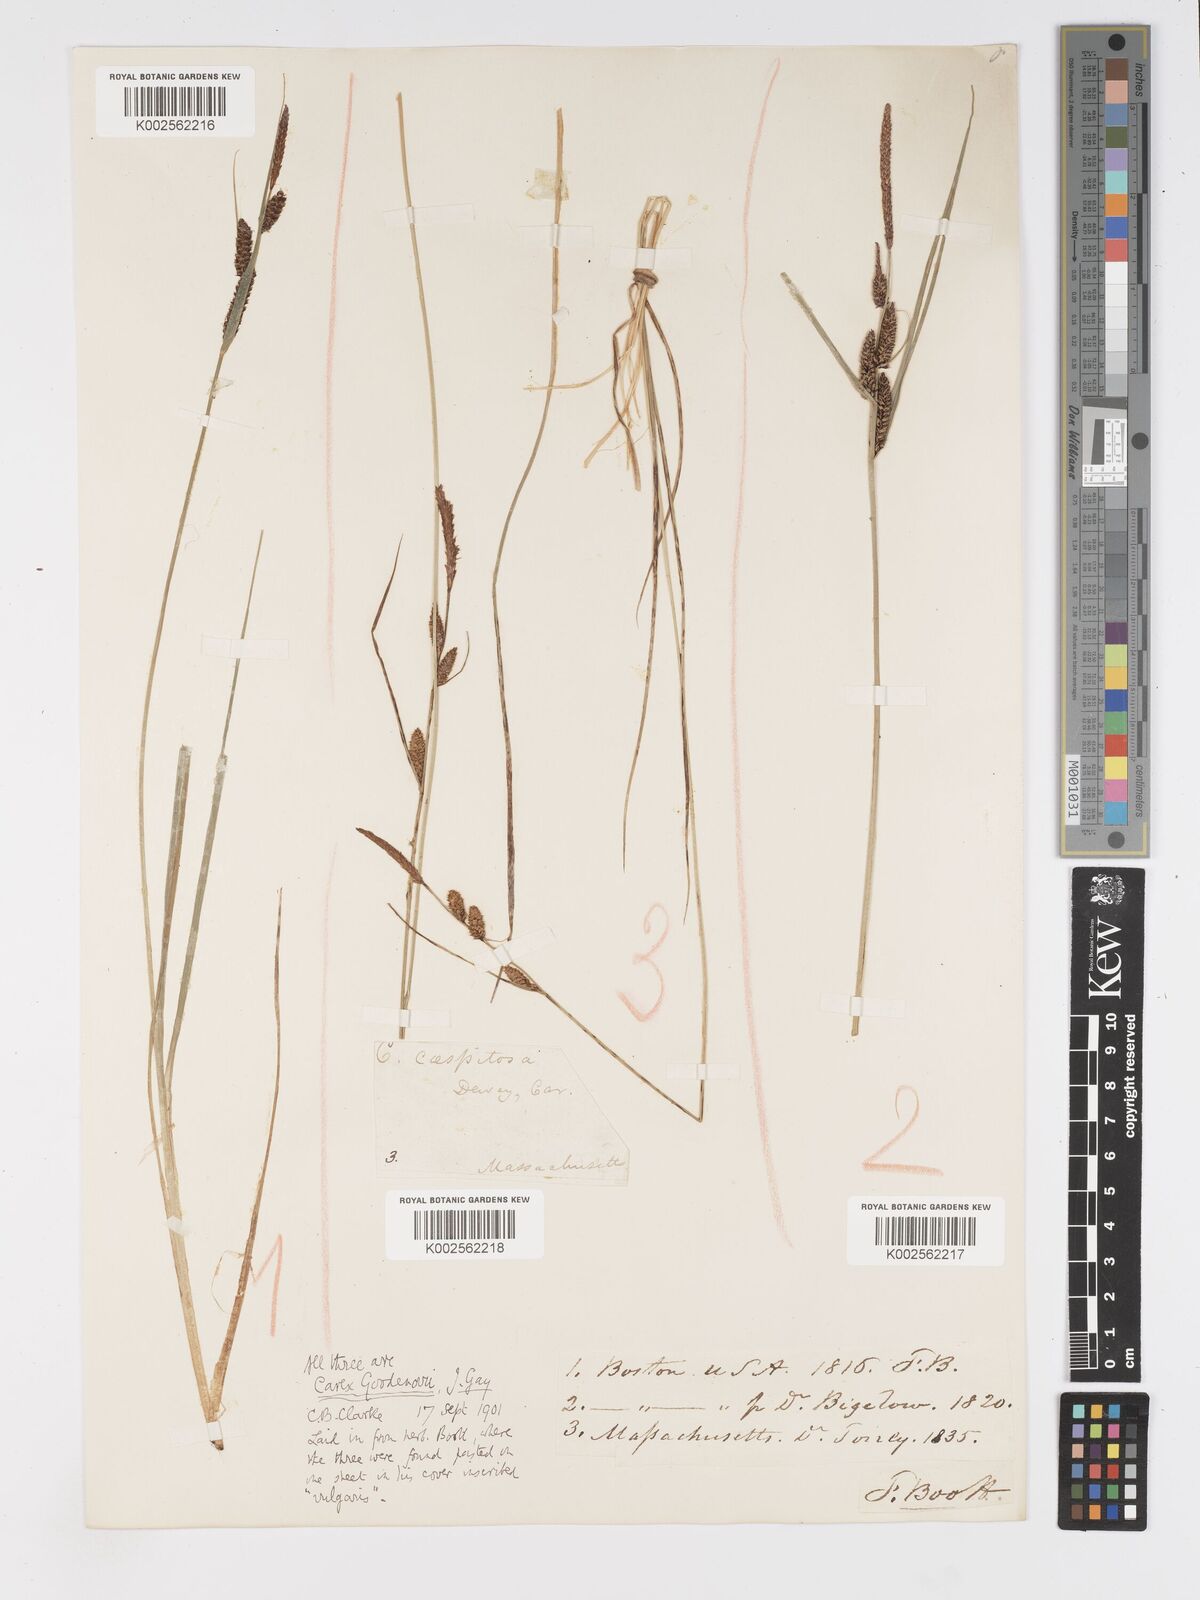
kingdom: Plantae
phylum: Tracheophyta
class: Liliopsida
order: Poales
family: Cyperaceae
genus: Carex
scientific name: Carex nigra
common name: Common sedge
